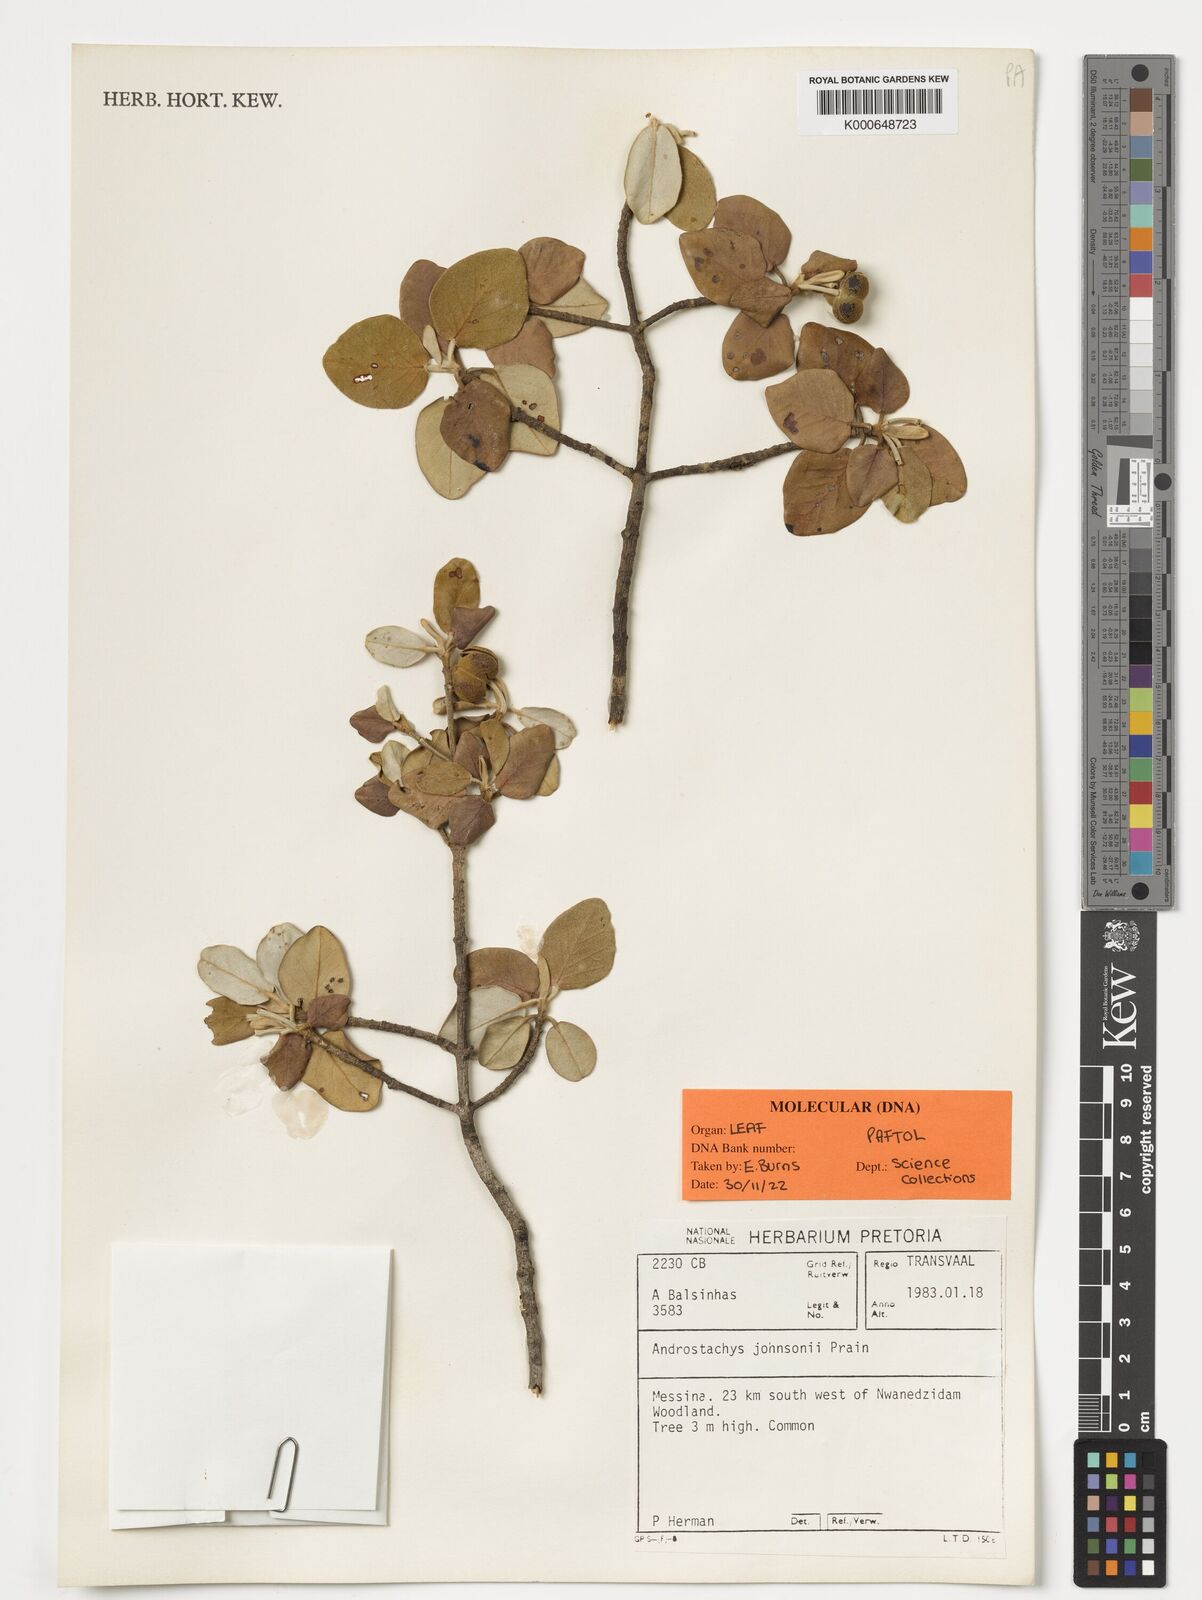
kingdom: Plantae
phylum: Tracheophyta
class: Magnoliopsida
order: Malpighiales
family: Picrodendraceae
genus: Androstachys
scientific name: Androstachys johnsonii
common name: Lebombo ironwood
